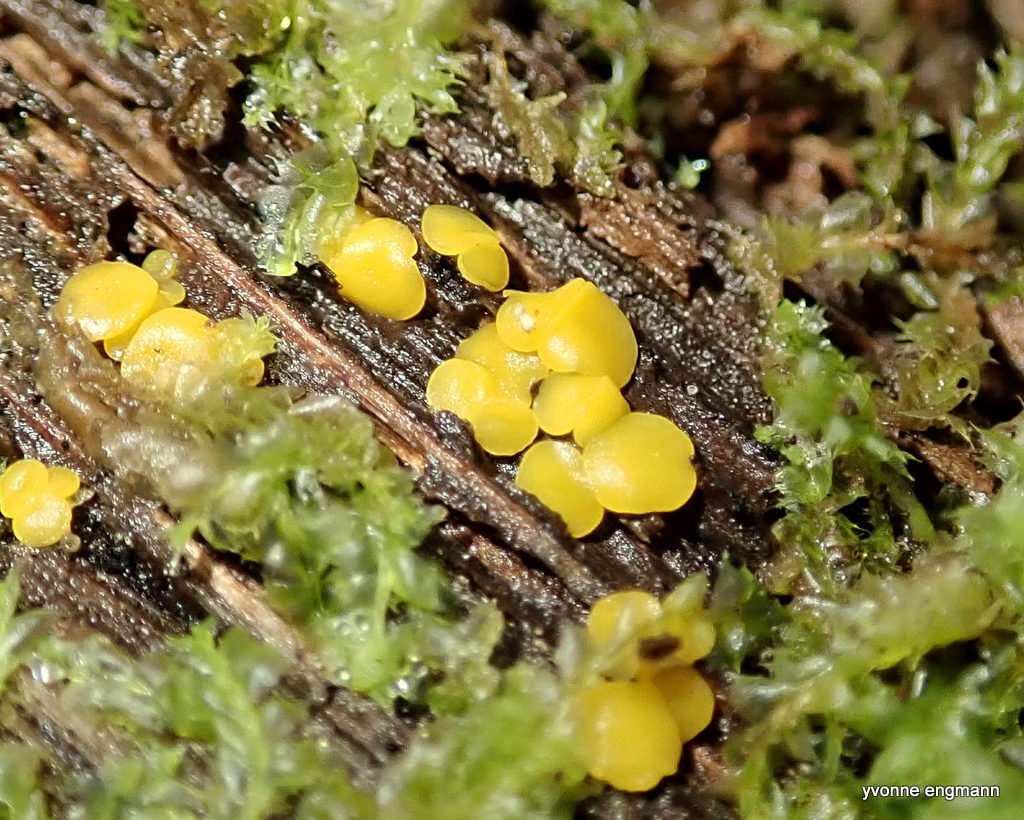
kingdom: Fungi
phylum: Ascomycota
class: Leotiomycetes
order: Helotiales
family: Pezizellaceae
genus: Calycina
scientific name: Calycina citrina
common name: almindelig gulskive
